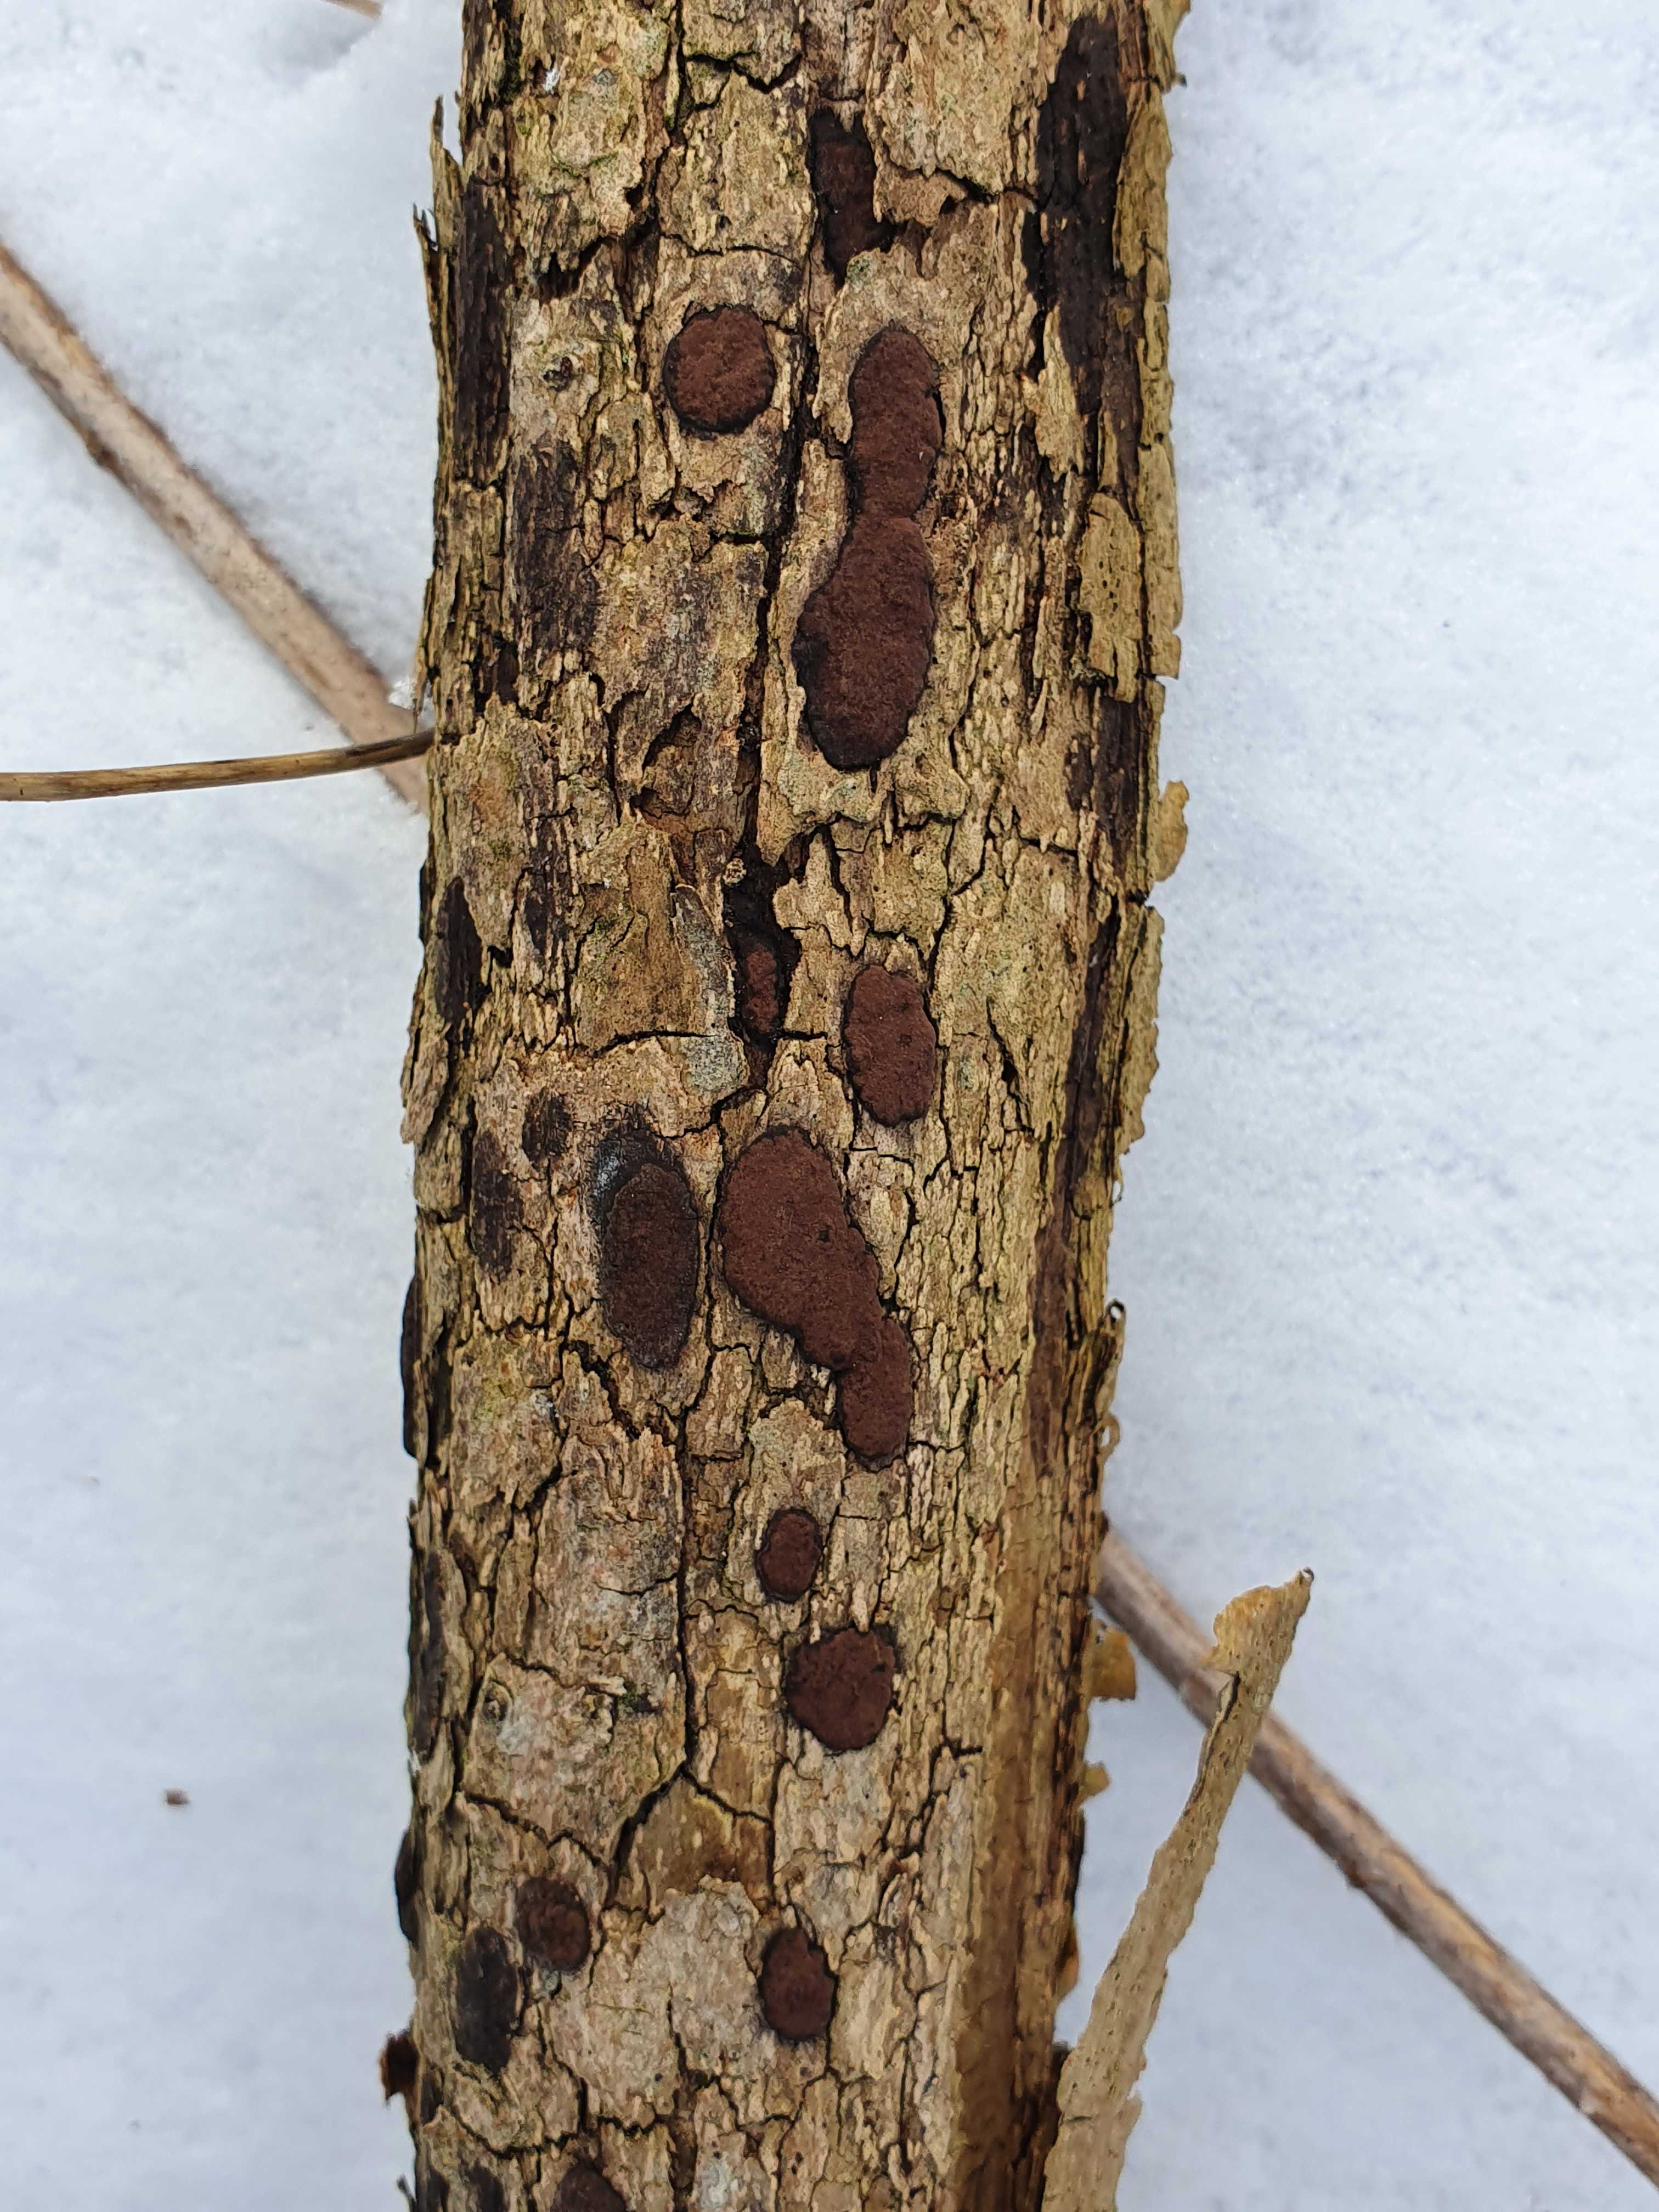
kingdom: Fungi
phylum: Ascomycota
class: Sordariomycetes
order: Xylariales
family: Hypoxylaceae
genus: Hypoxylon
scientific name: Hypoxylon petriniae
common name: nedsænket kulbær
